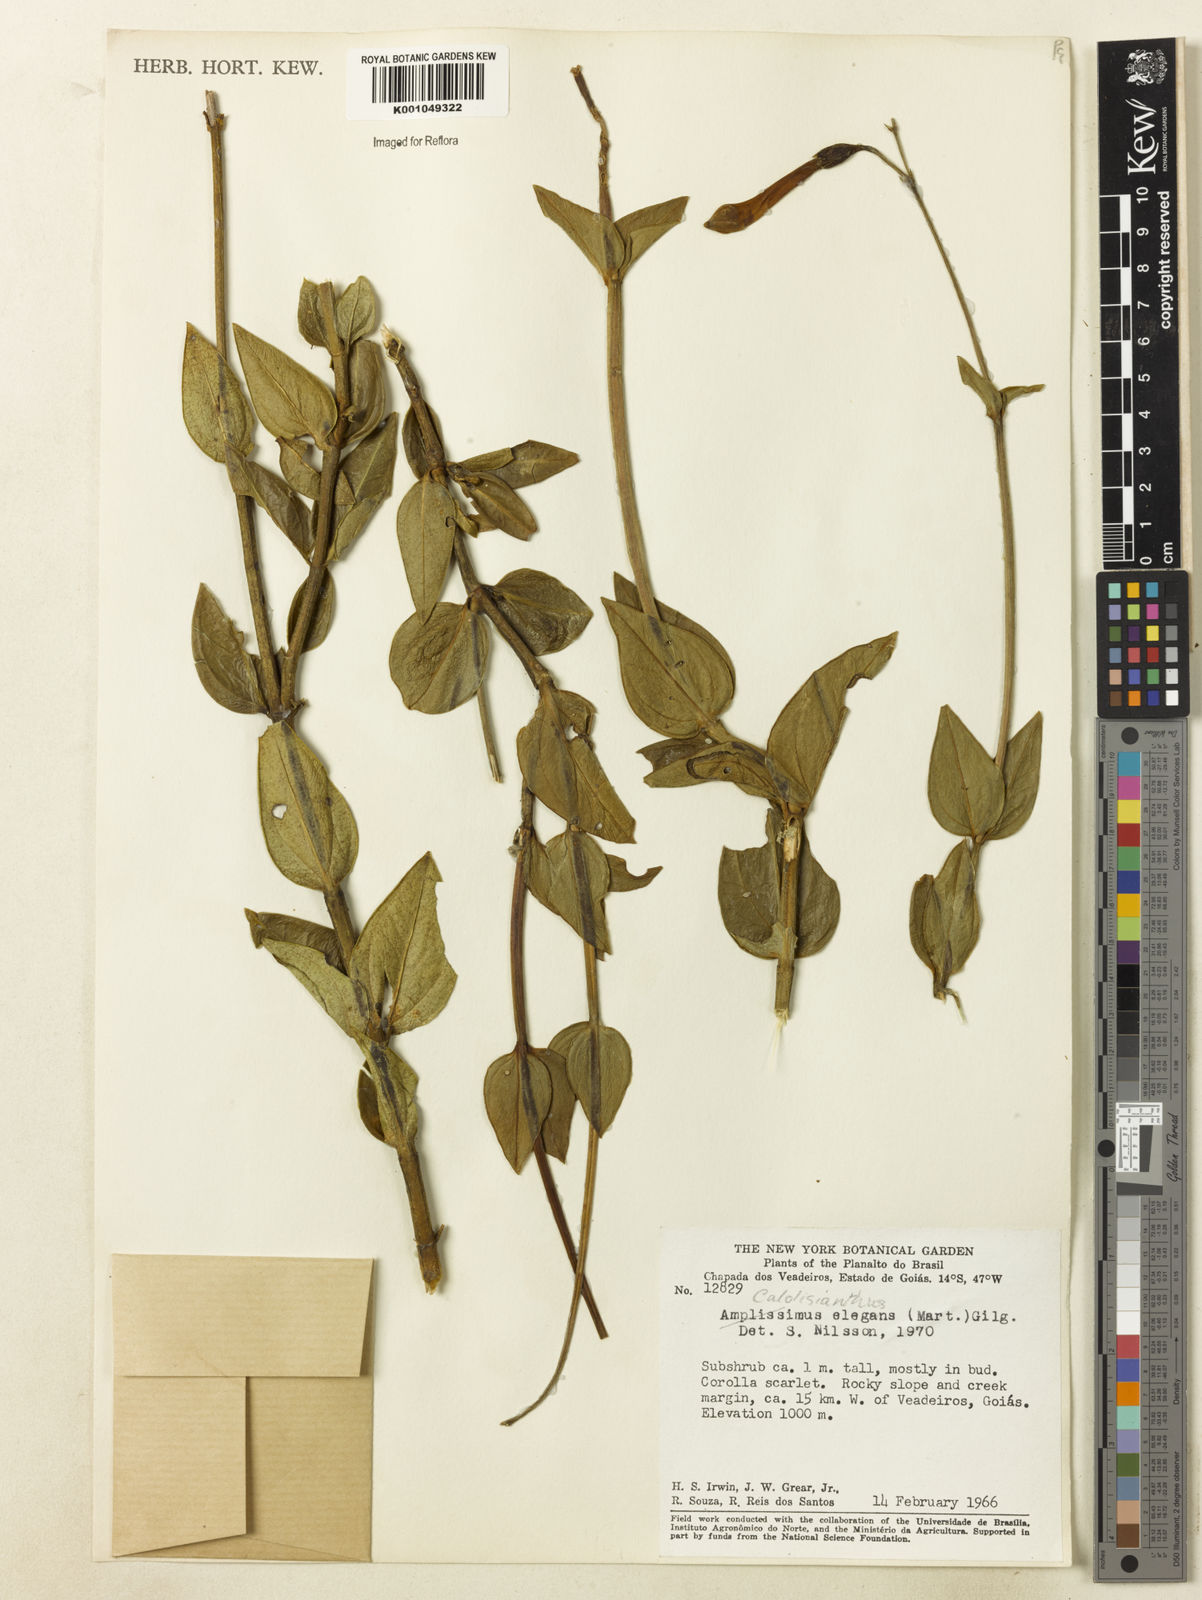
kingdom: Plantae
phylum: Tracheophyta
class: Magnoliopsida
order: Gentianales
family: Gentianaceae
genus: Calolisianthus
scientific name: Calolisianthus
